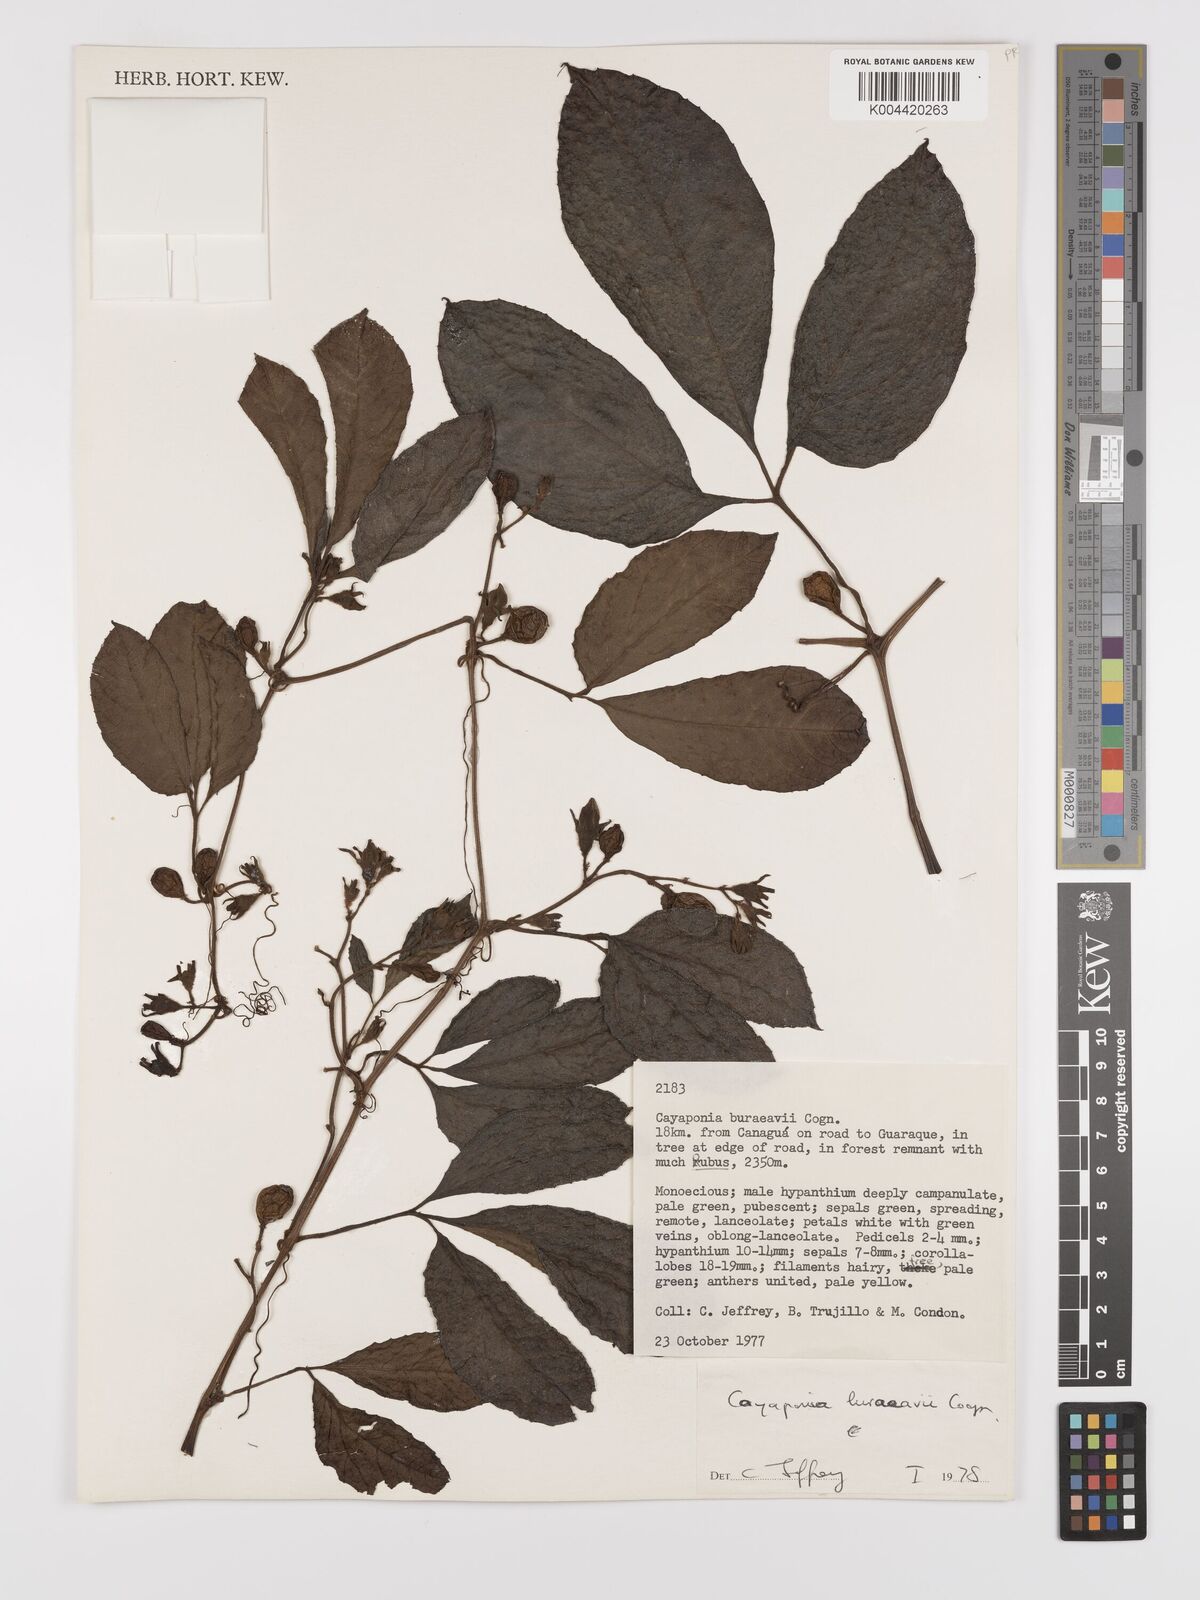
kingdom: Plantae
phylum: Tracheophyta
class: Magnoliopsida
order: Cucurbitales
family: Cucurbitaceae
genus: Cayaponia
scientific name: Cayaponia buraeavii
